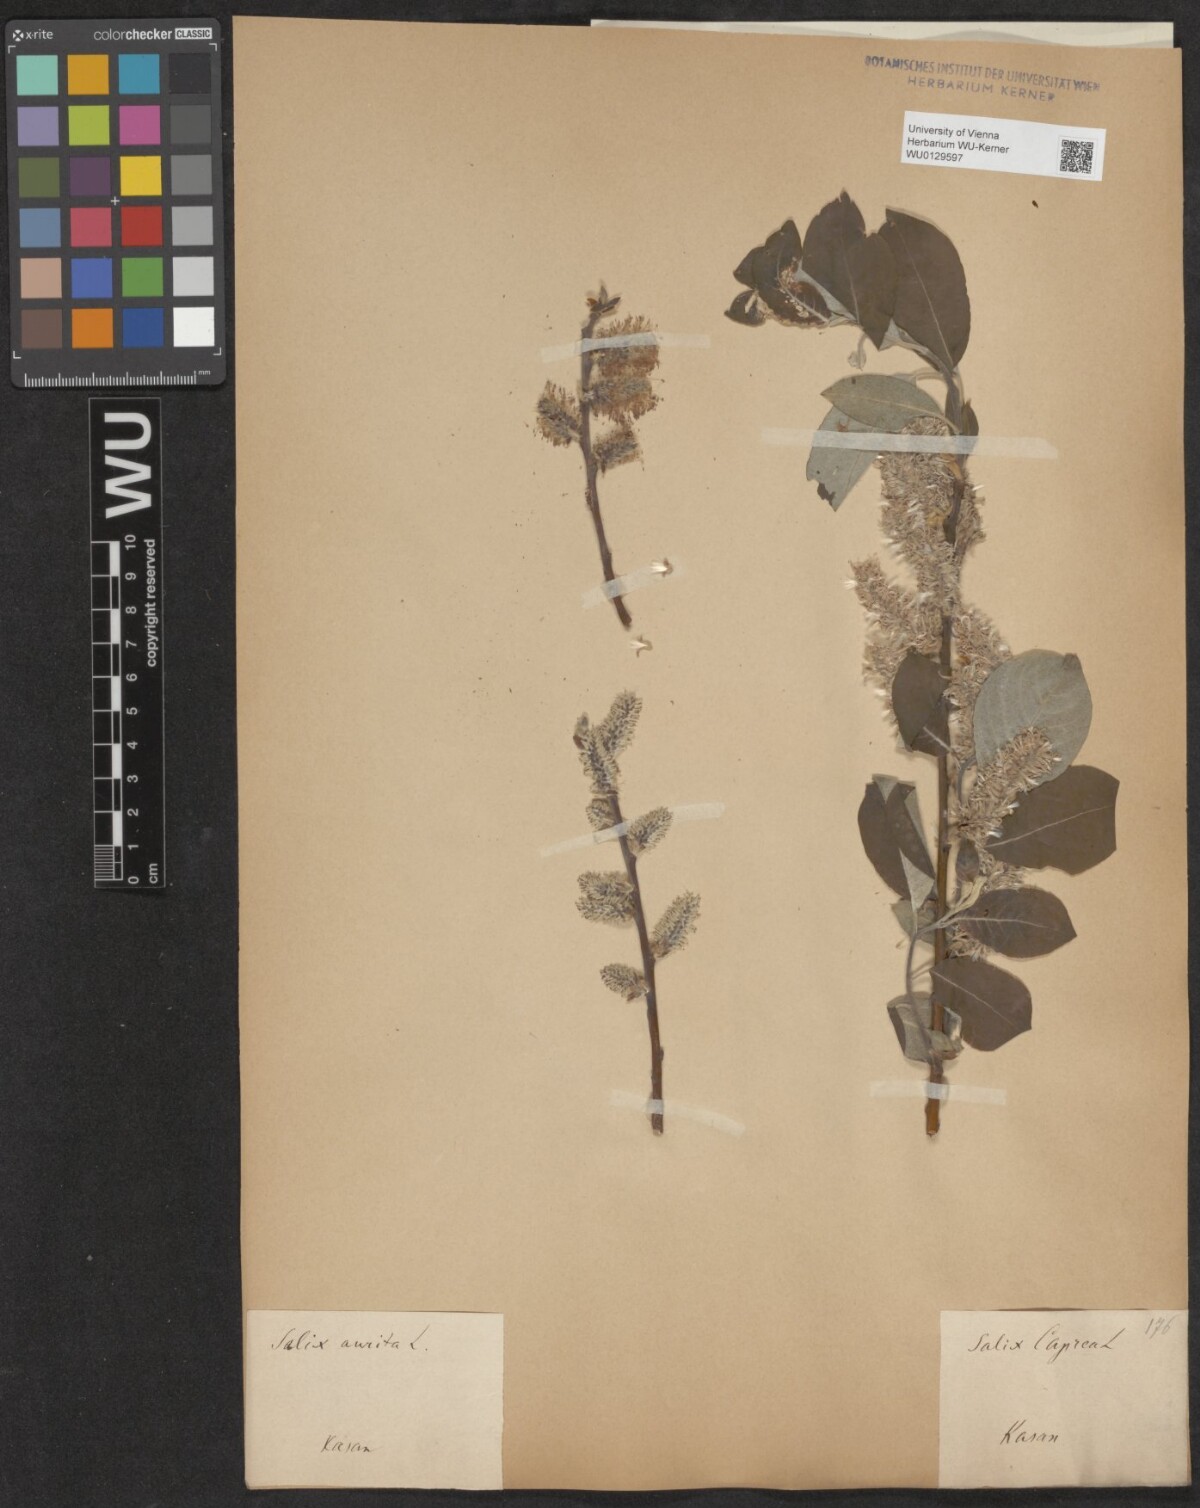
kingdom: Plantae
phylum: Tracheophyta
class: Magnoliopsida
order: Malpighiales
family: Salicaceae
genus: Salix
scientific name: Salix caprea
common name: Goat willow
